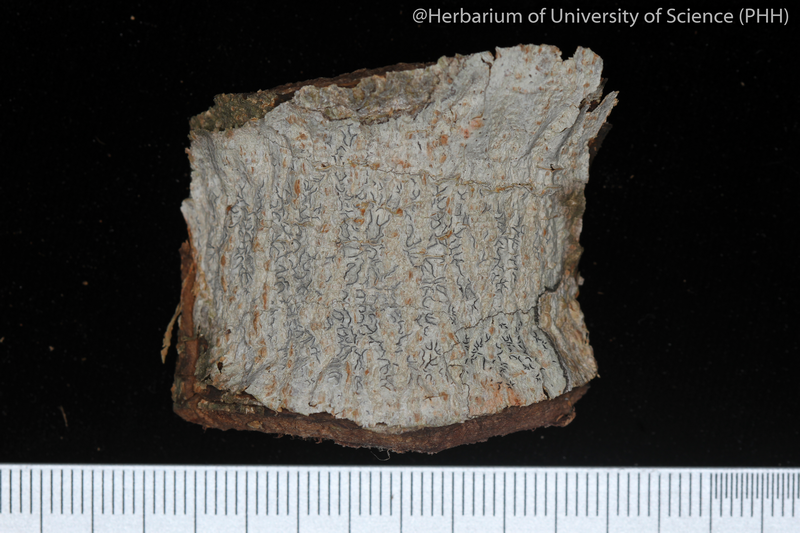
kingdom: Fungi
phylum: Ascomycota
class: Lecanoromycetes
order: Ostropales
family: Graphidaceae
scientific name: Graphidaceae
